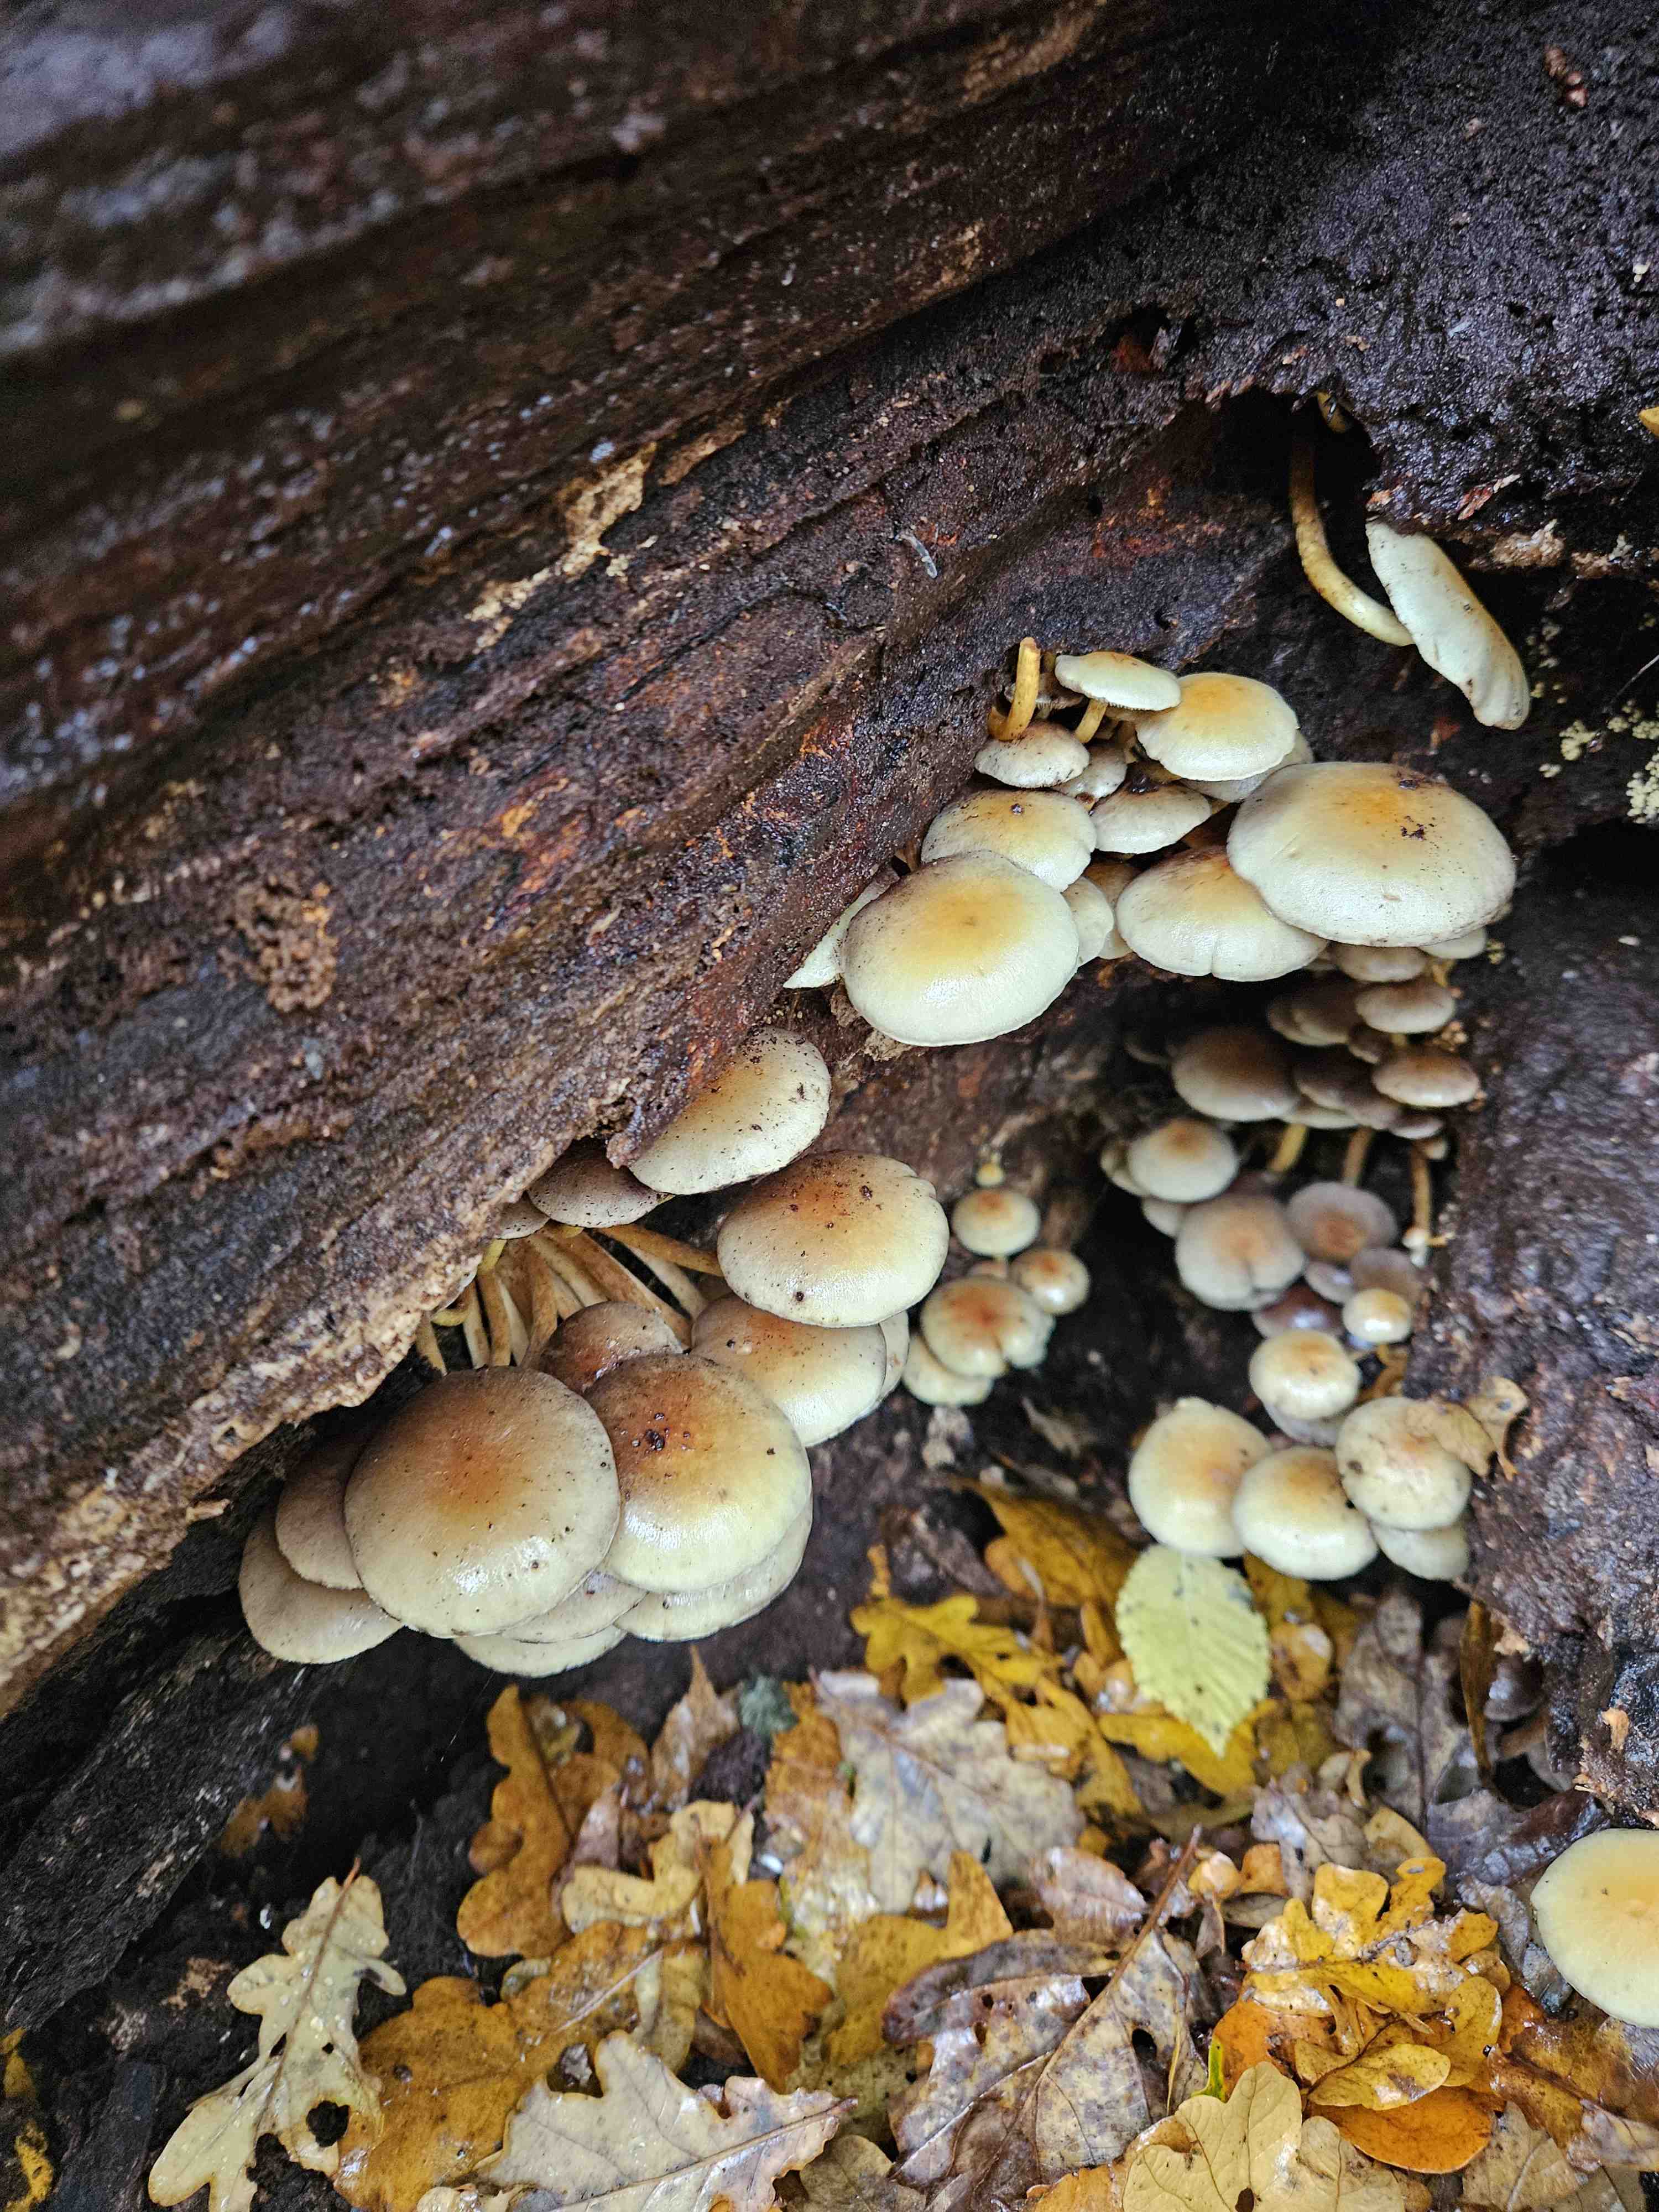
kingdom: Fungi
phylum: Basidiomycota
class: Agaricomycetes
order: Agaricales
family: Strophariaceae
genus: Hypholoma
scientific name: Hypholoma fasciculare
